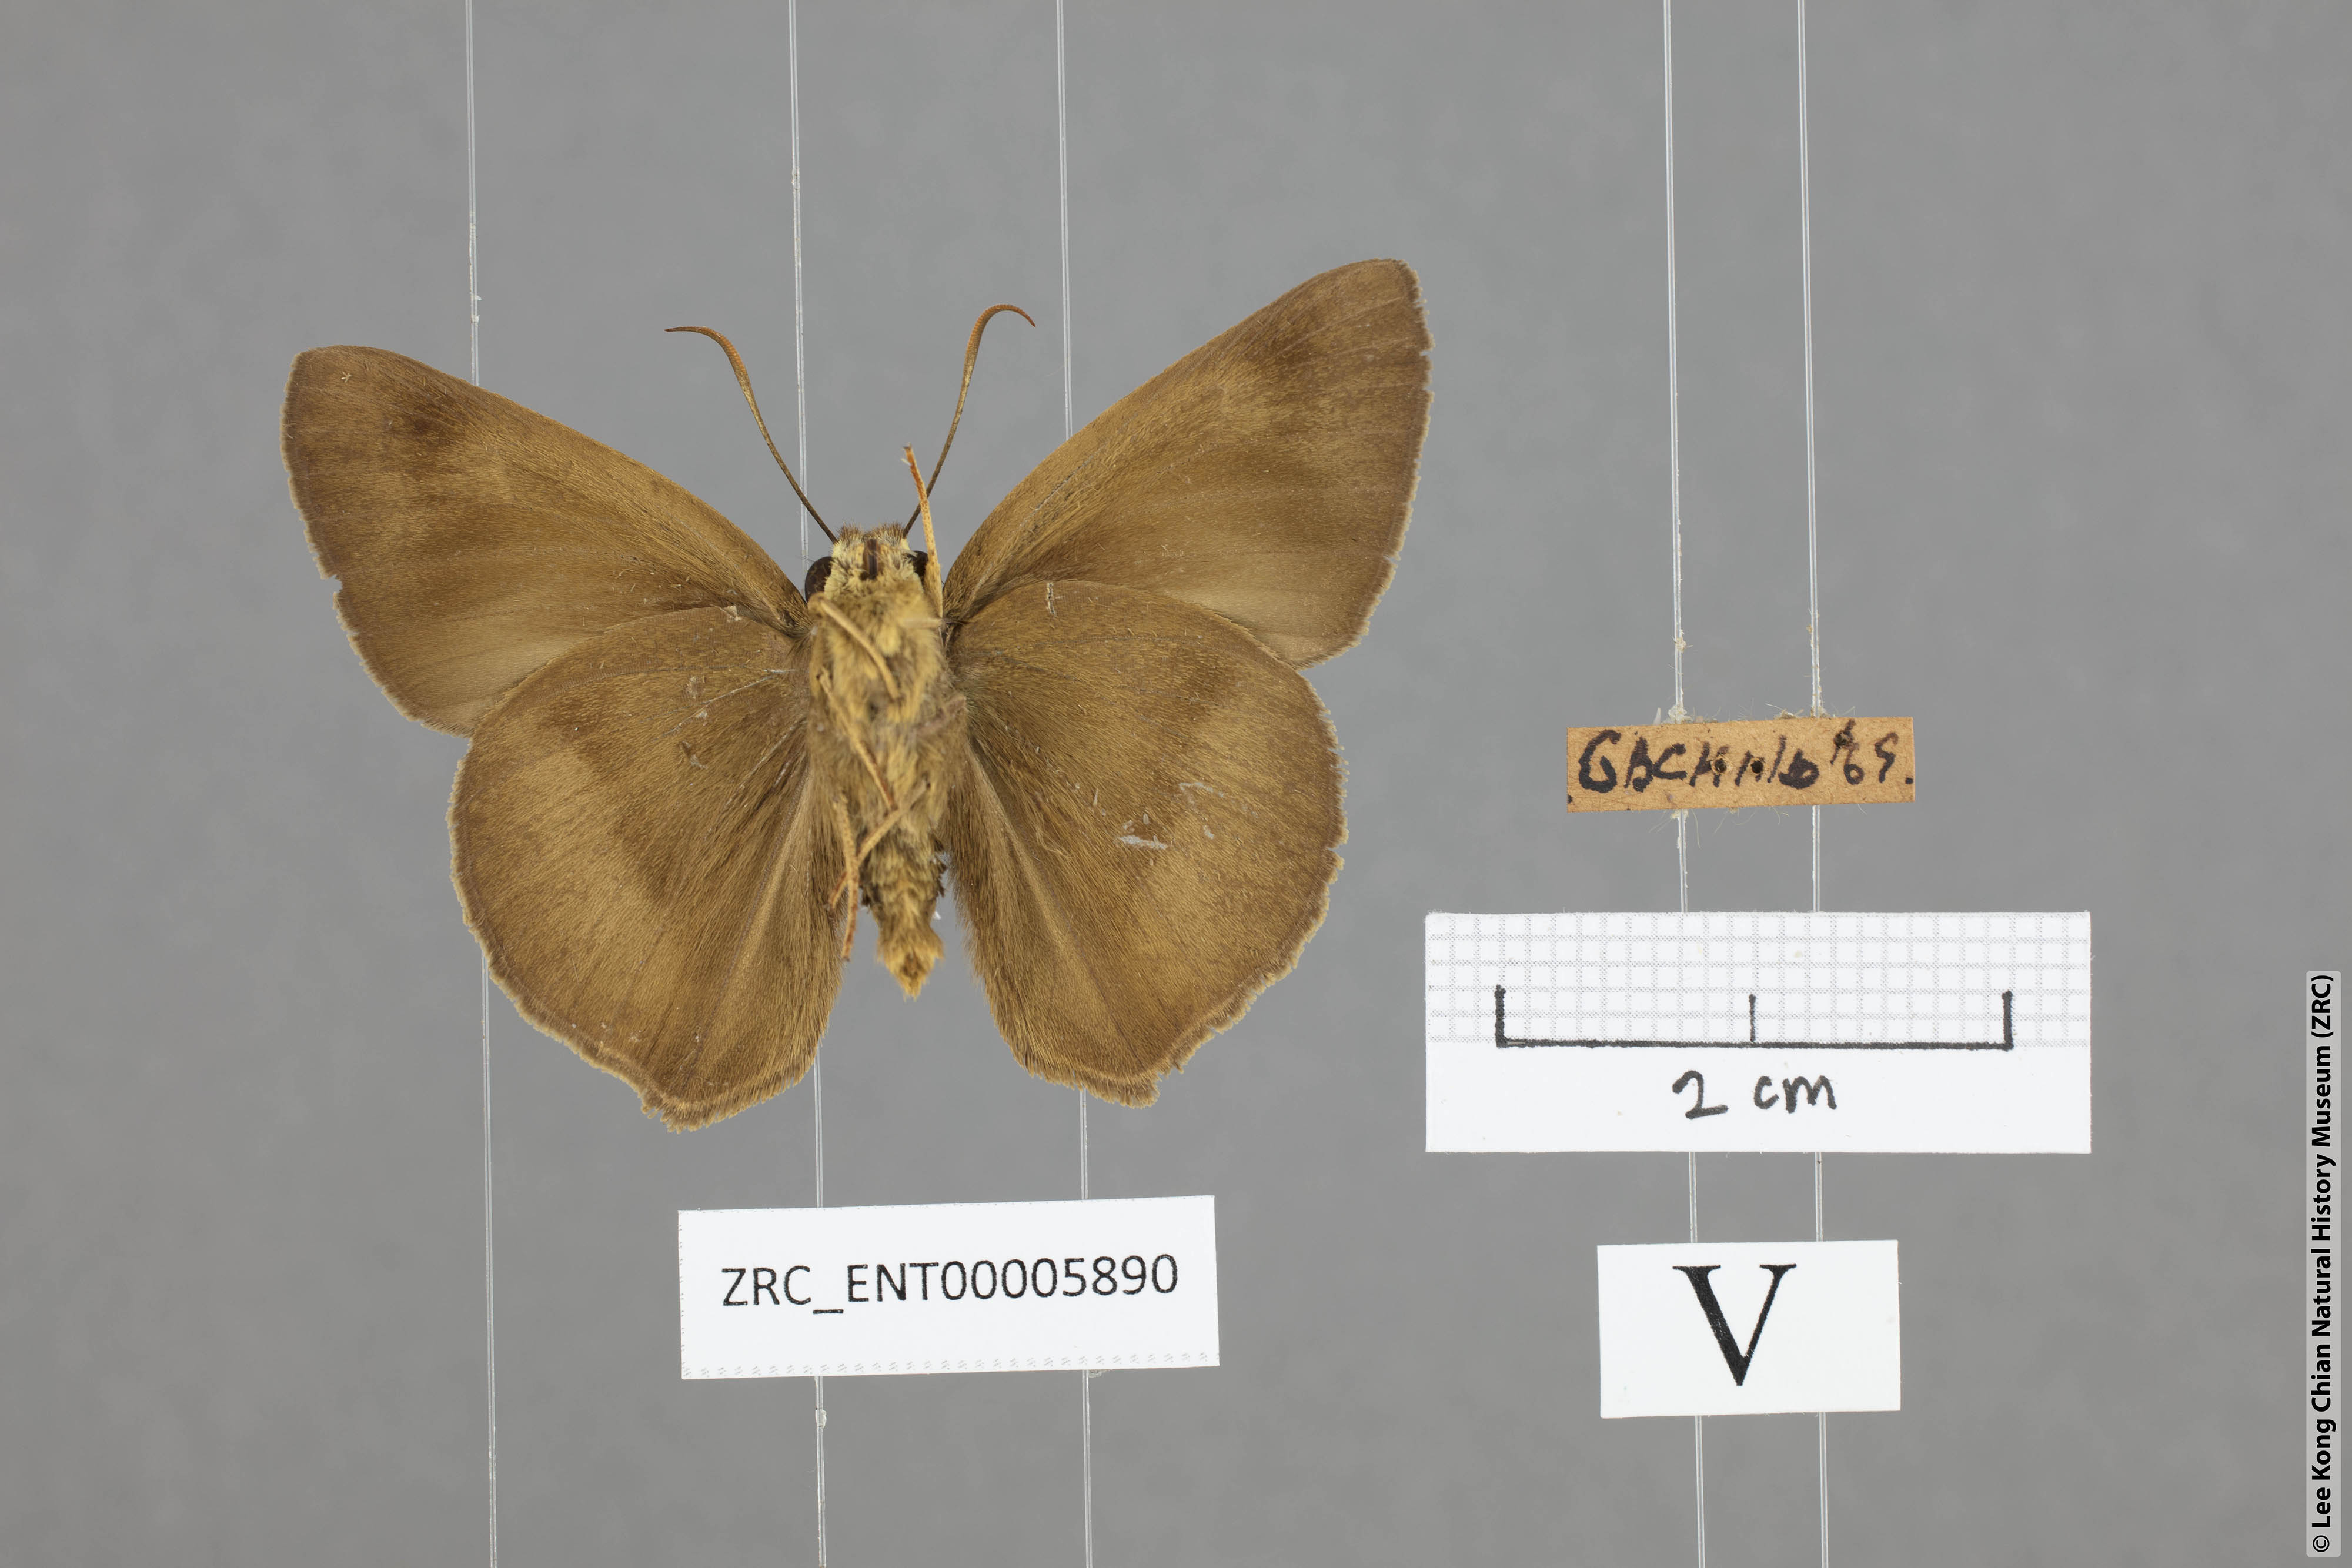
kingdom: Animalia
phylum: Arthropoda
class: Insecta
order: Lepidoptera
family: Hesperiidae
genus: Hasora
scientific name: Hasora myra
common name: Pale-tailed awl
